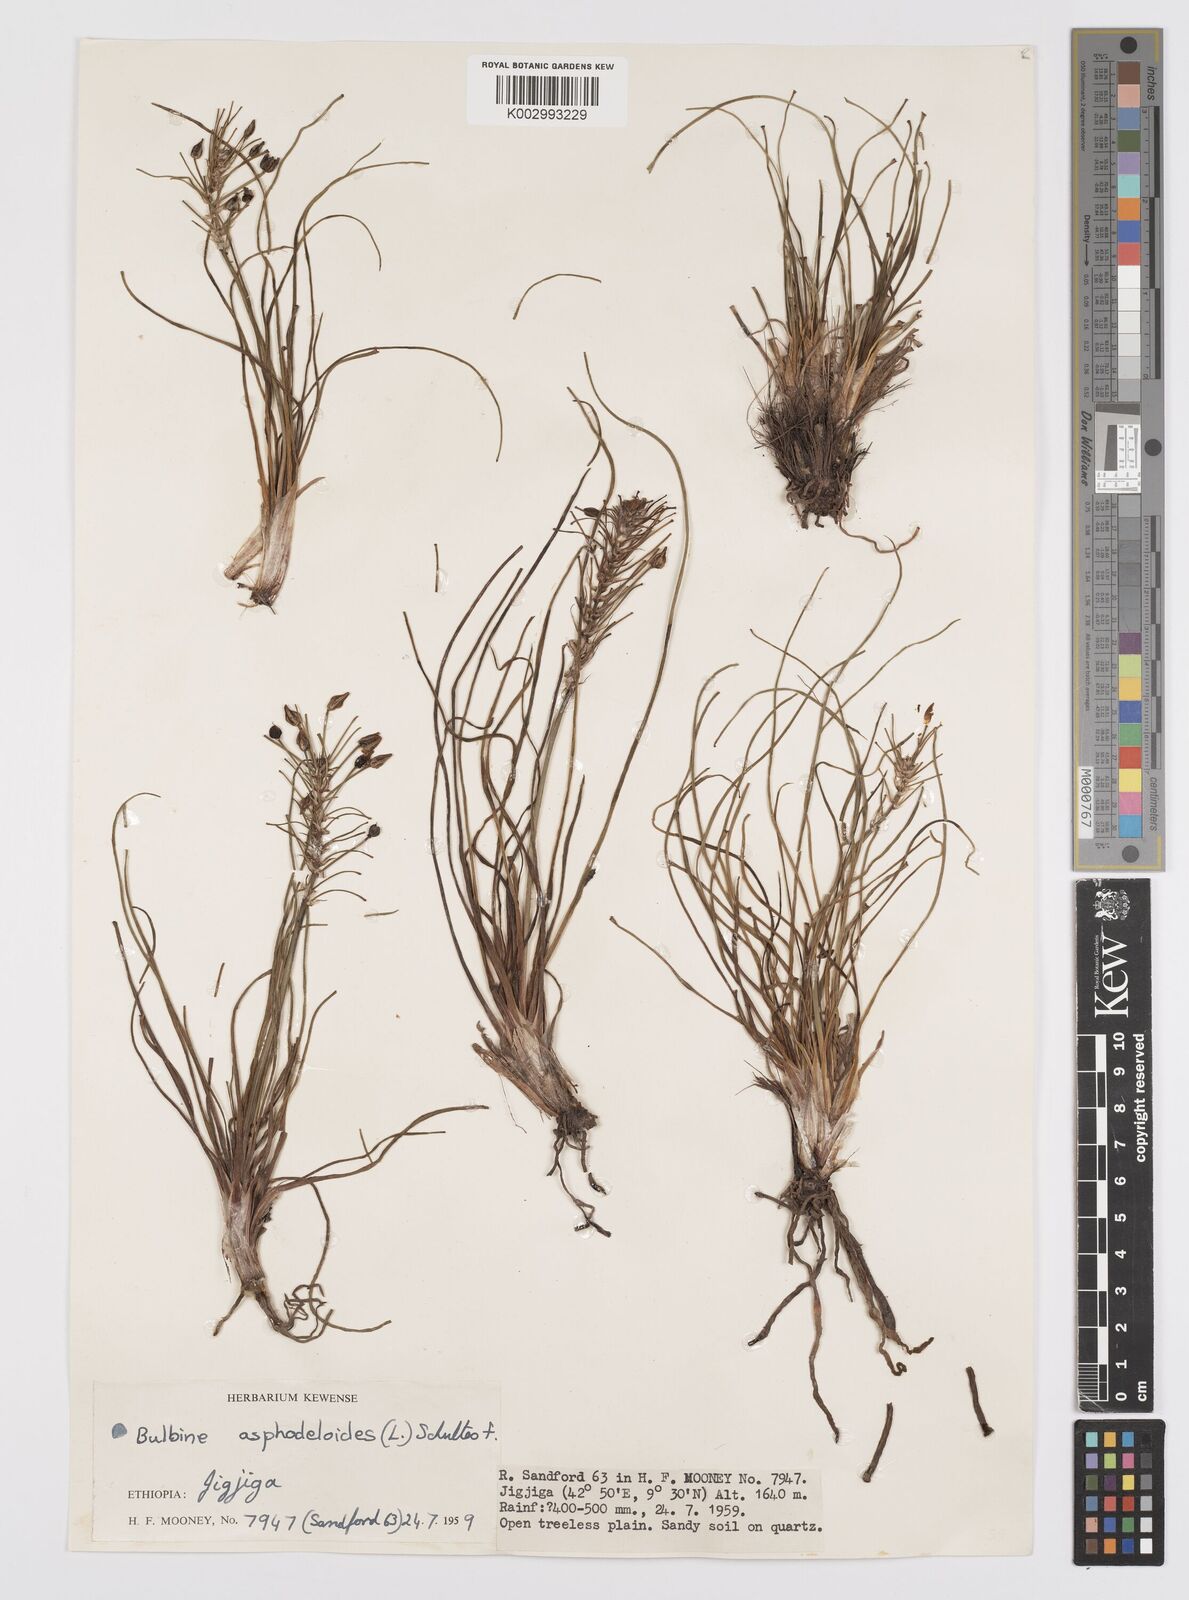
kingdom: Plantae
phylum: Tracheophyta
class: Liliopsida
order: Asparagales
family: Asphodelaceae
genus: Bulbine
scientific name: Bulbine abyssinica
